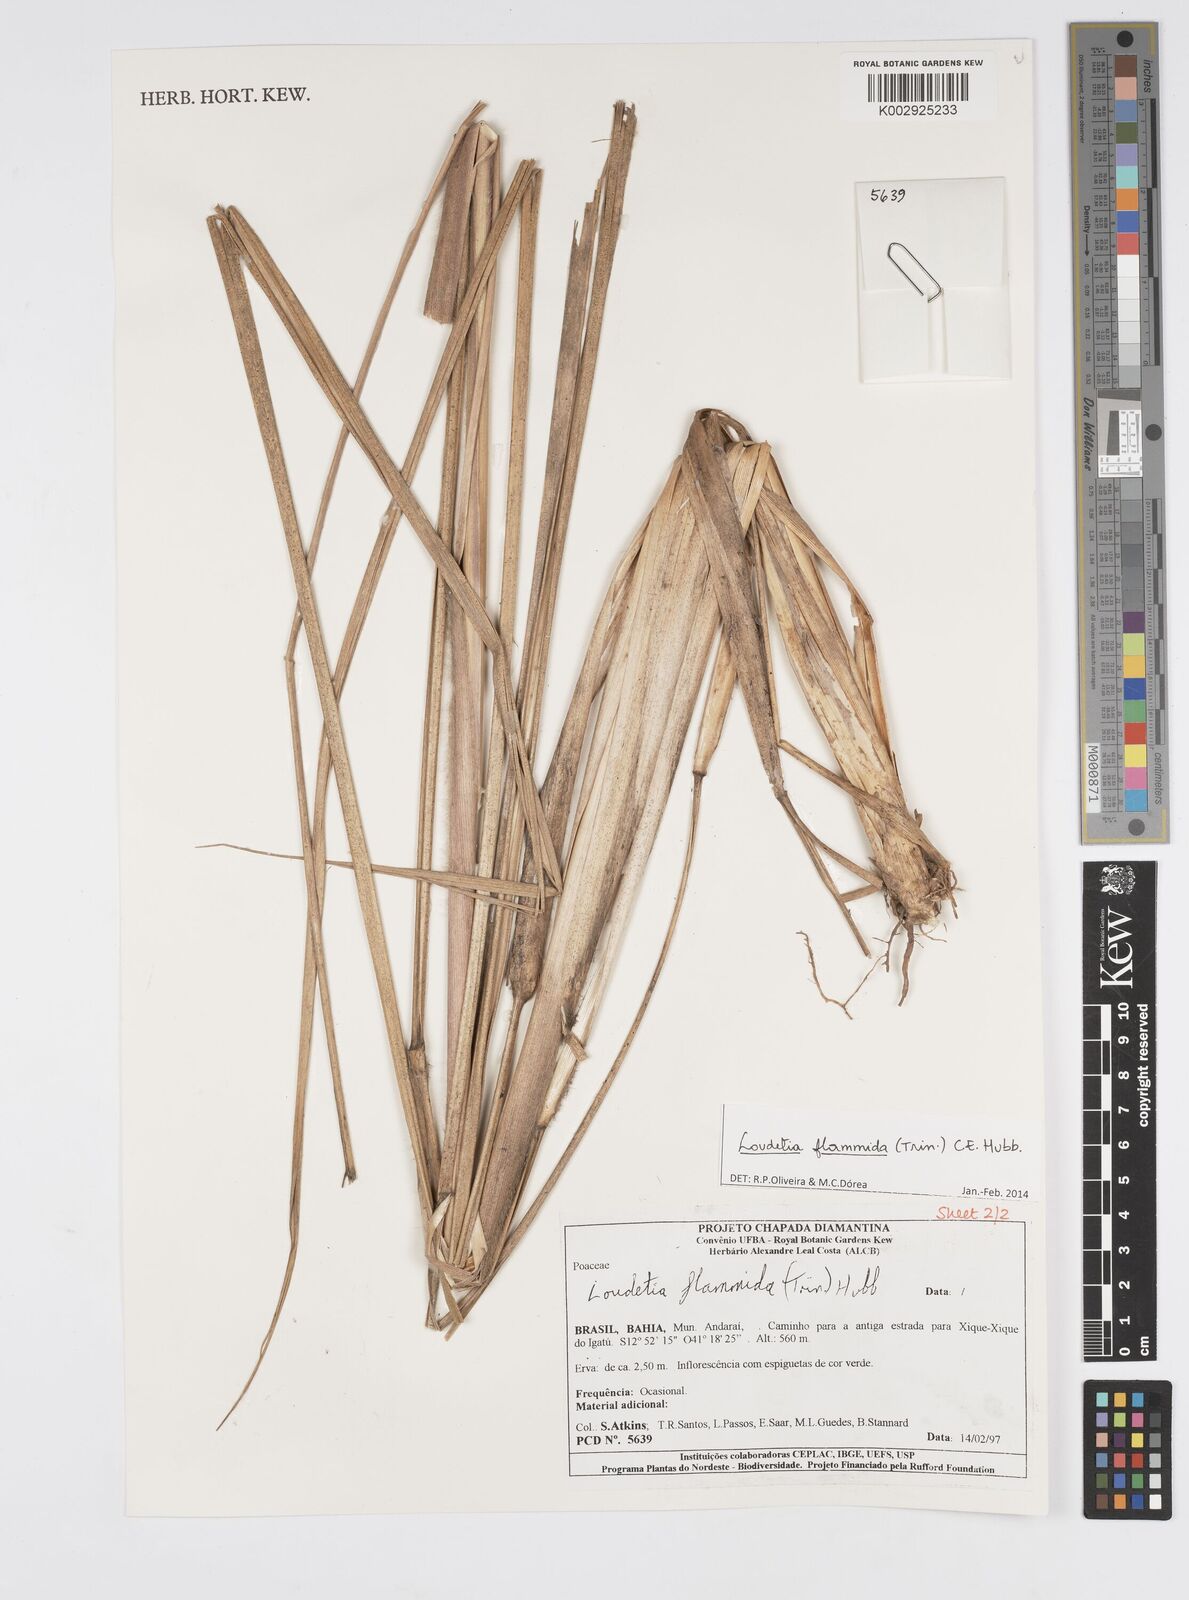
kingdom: Plantae
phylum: Tracheophyta
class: Liliopsida
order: Poales
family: Poaceae
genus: Loudetia
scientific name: Loudetia flammida
